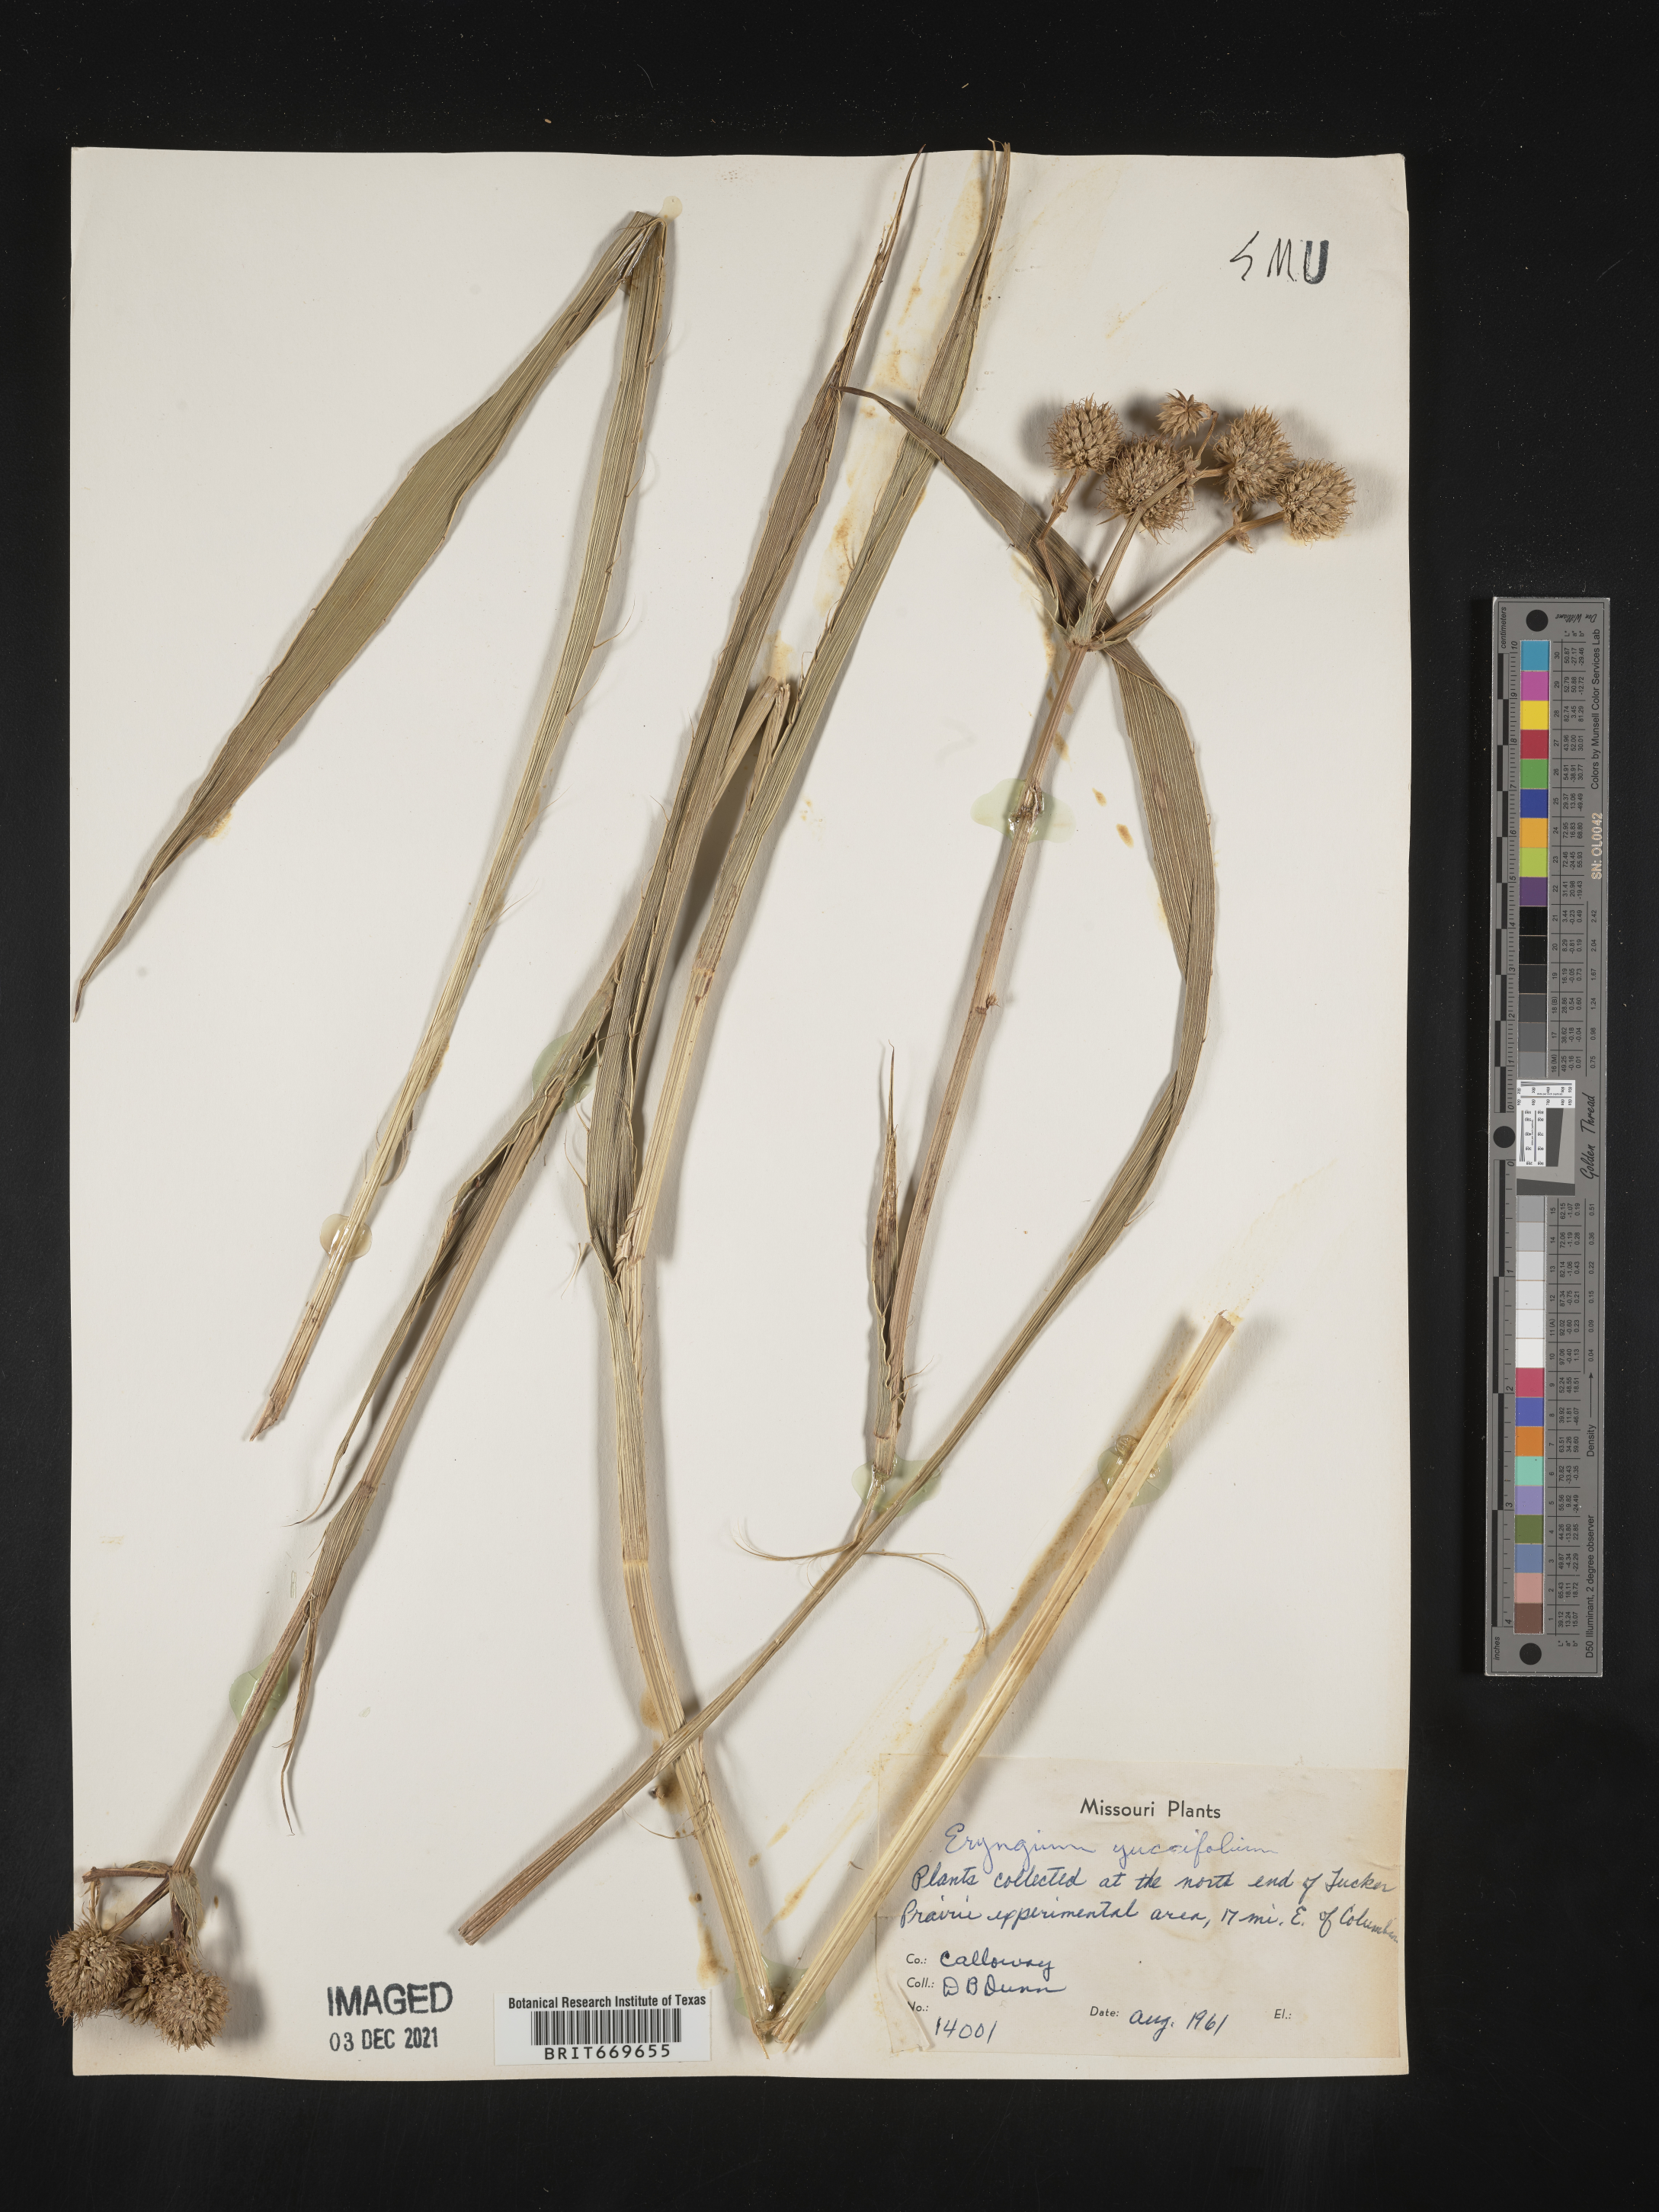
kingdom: Plantae
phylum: Tracheophyta
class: Magnoliopsida
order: Apiales
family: Apiaceae
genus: Eryngium
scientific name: Eryngium yuccifolium
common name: Button eryngo
